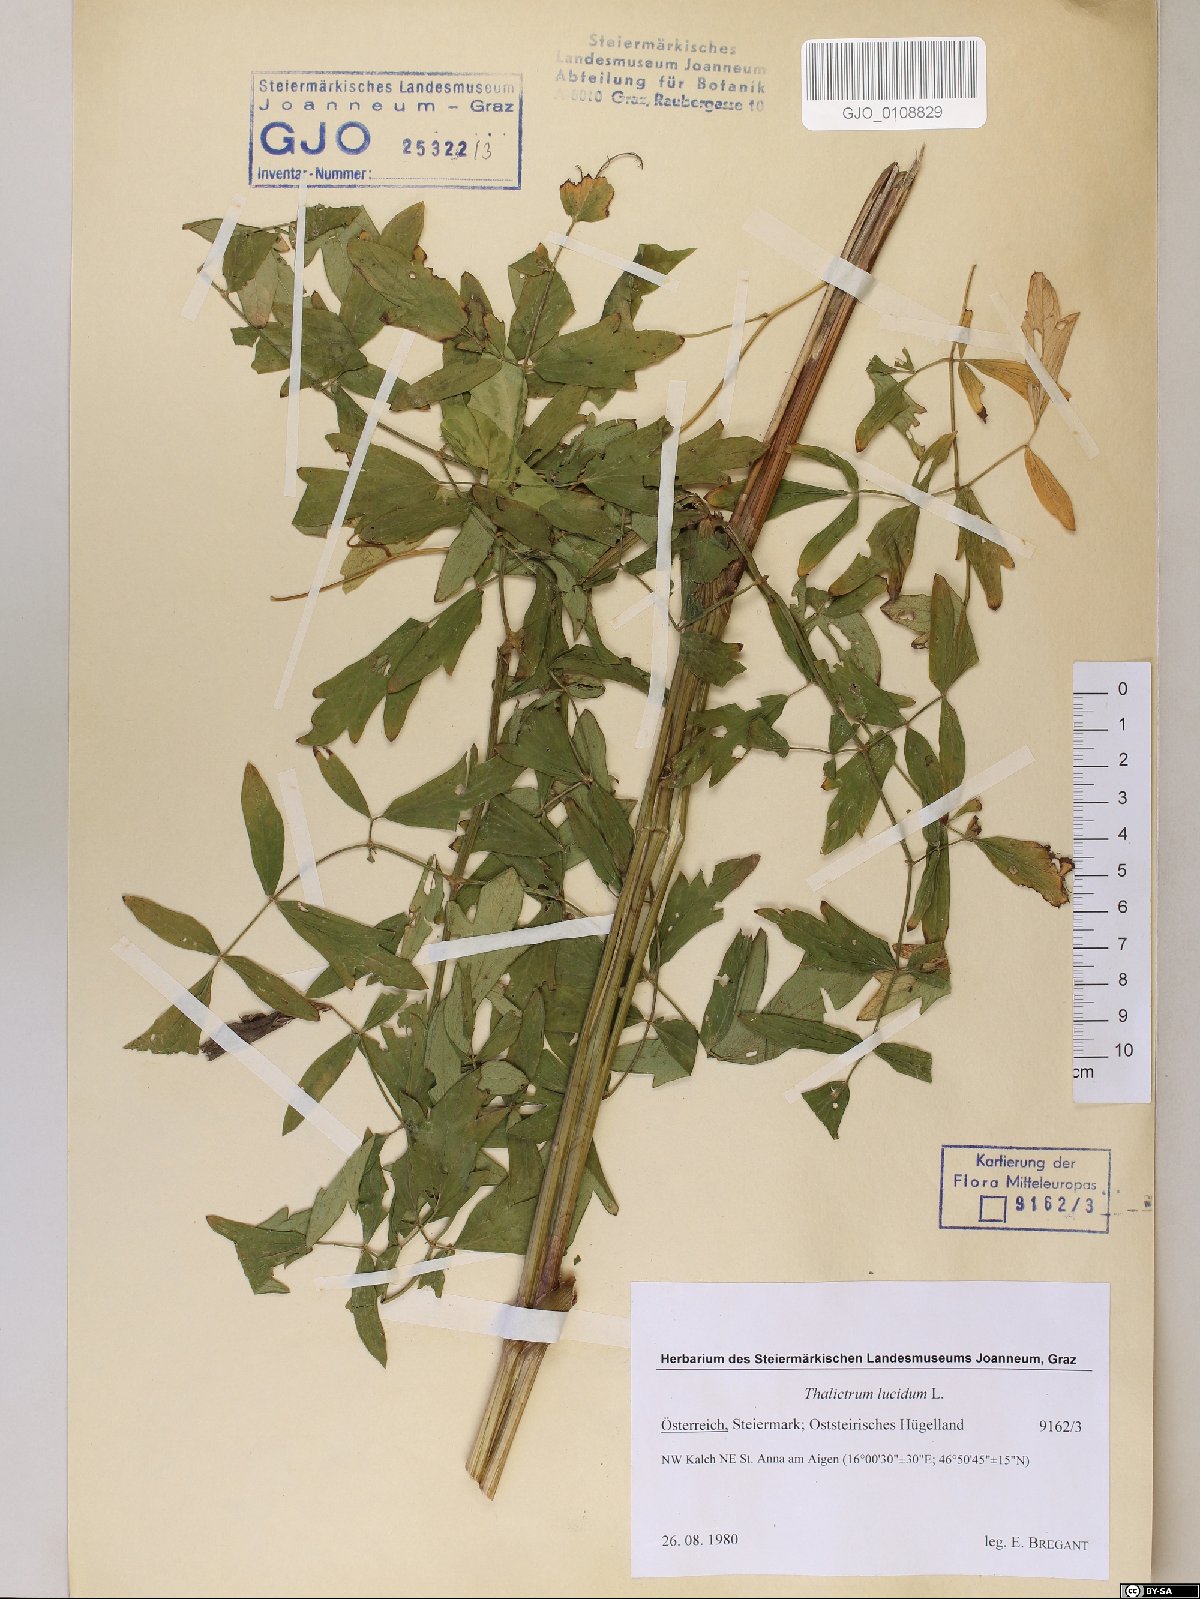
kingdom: Plantae
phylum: Tracheophyta
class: Magnoliopsida
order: Ranunculales
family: Ranunculaceae
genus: Thalictrum
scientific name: Thalictrum lucidum
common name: Shining meadow-rue
